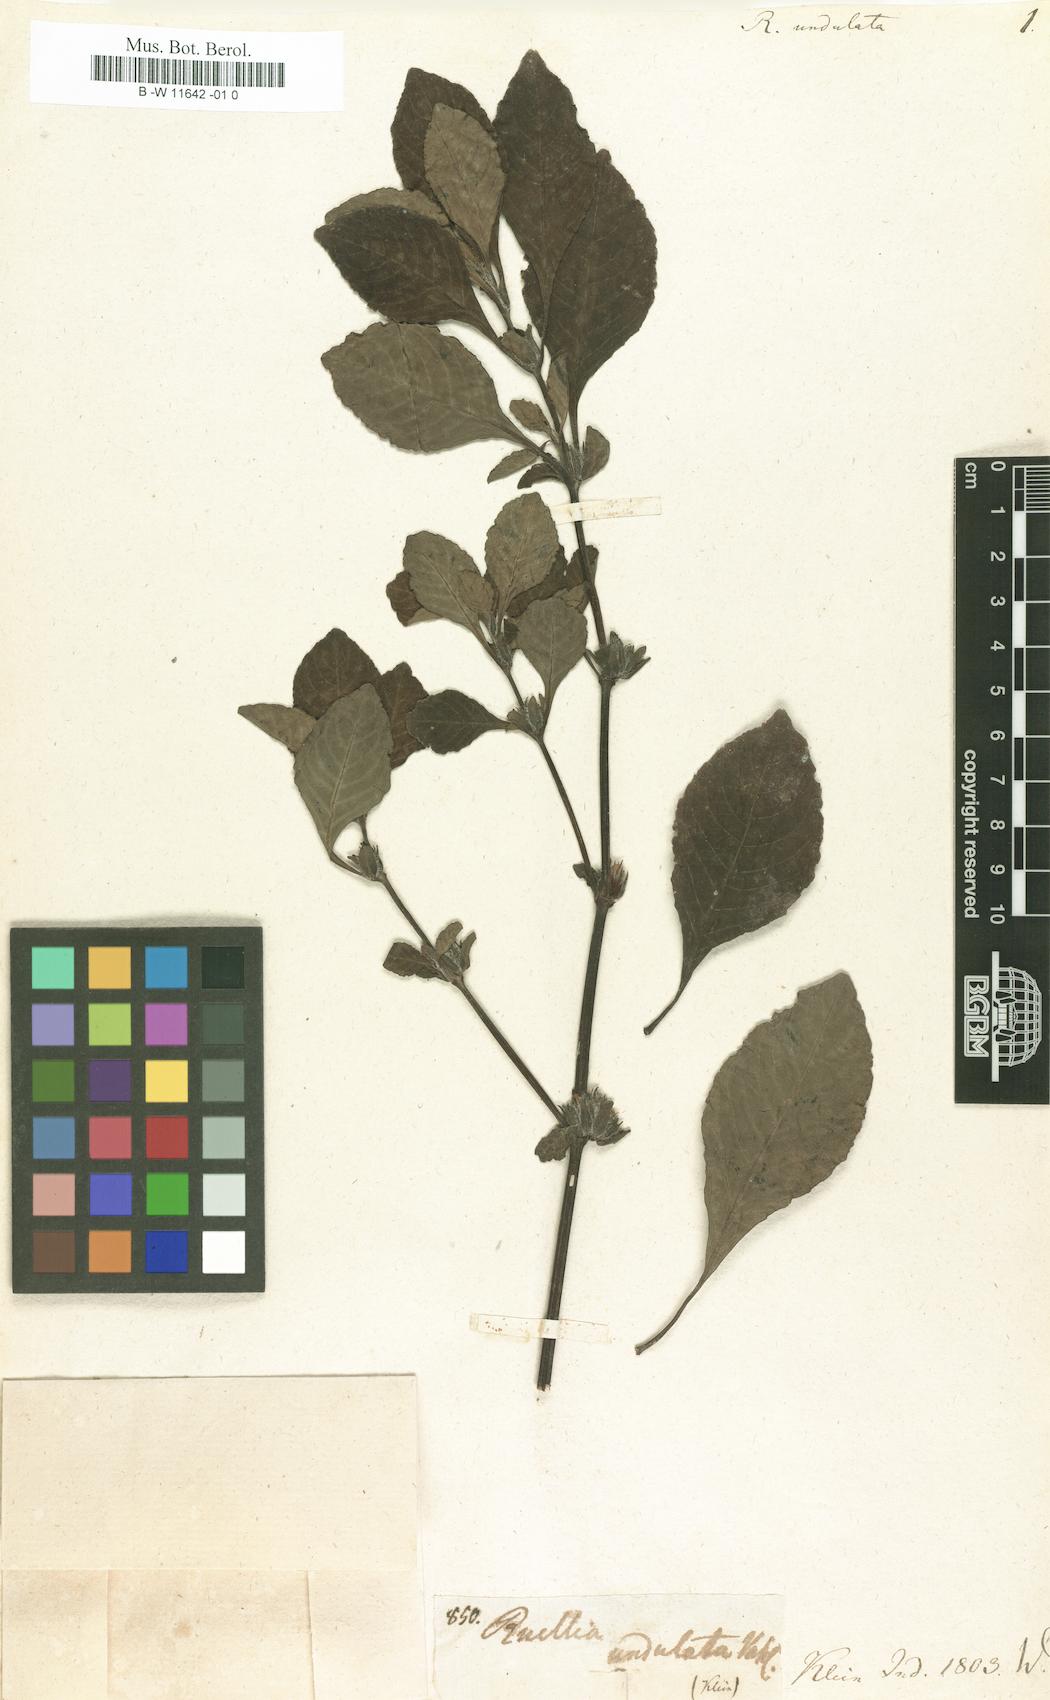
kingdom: Plantae
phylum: Tracheophyta
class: Magnoliopsida
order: Lamiales
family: Acanthaceae
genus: Hygrophila
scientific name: Hygrophila ringens
